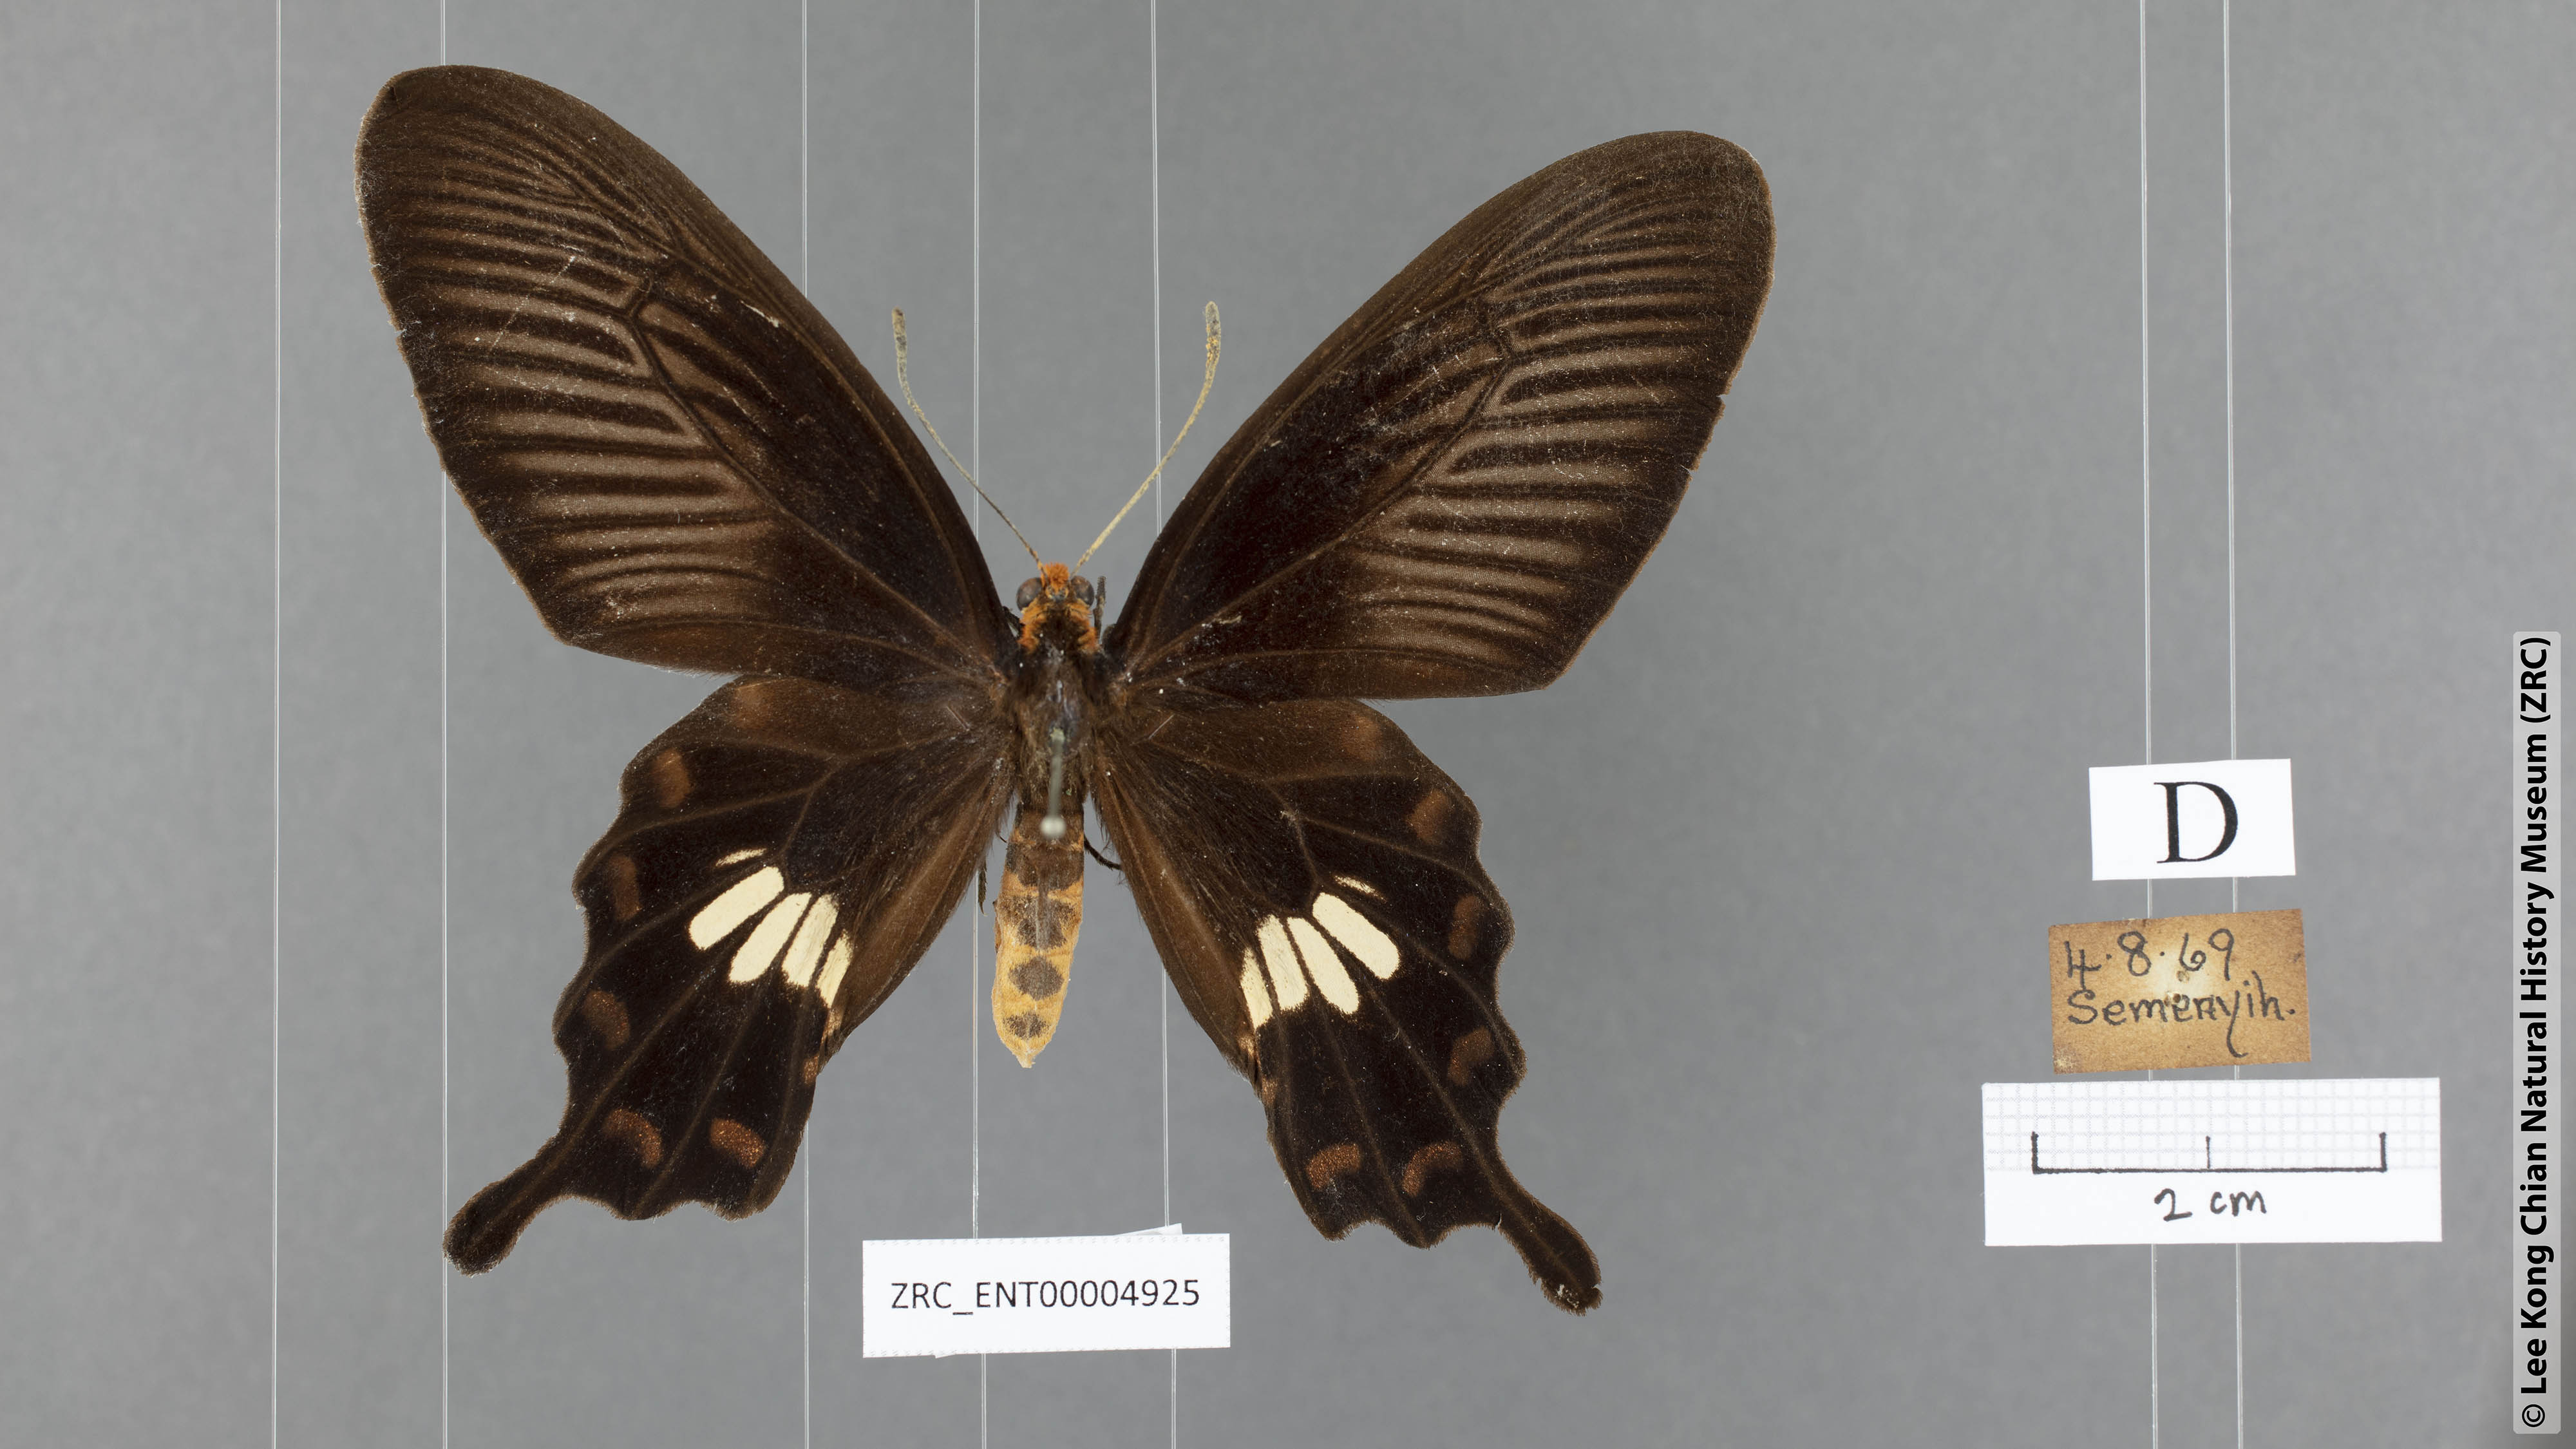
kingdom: Animalia
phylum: Arthropoda
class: Insecta
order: Lepidoptera
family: Papilionidae
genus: Pachliopta
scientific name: Pachliopta aristolochiae
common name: Common rose
